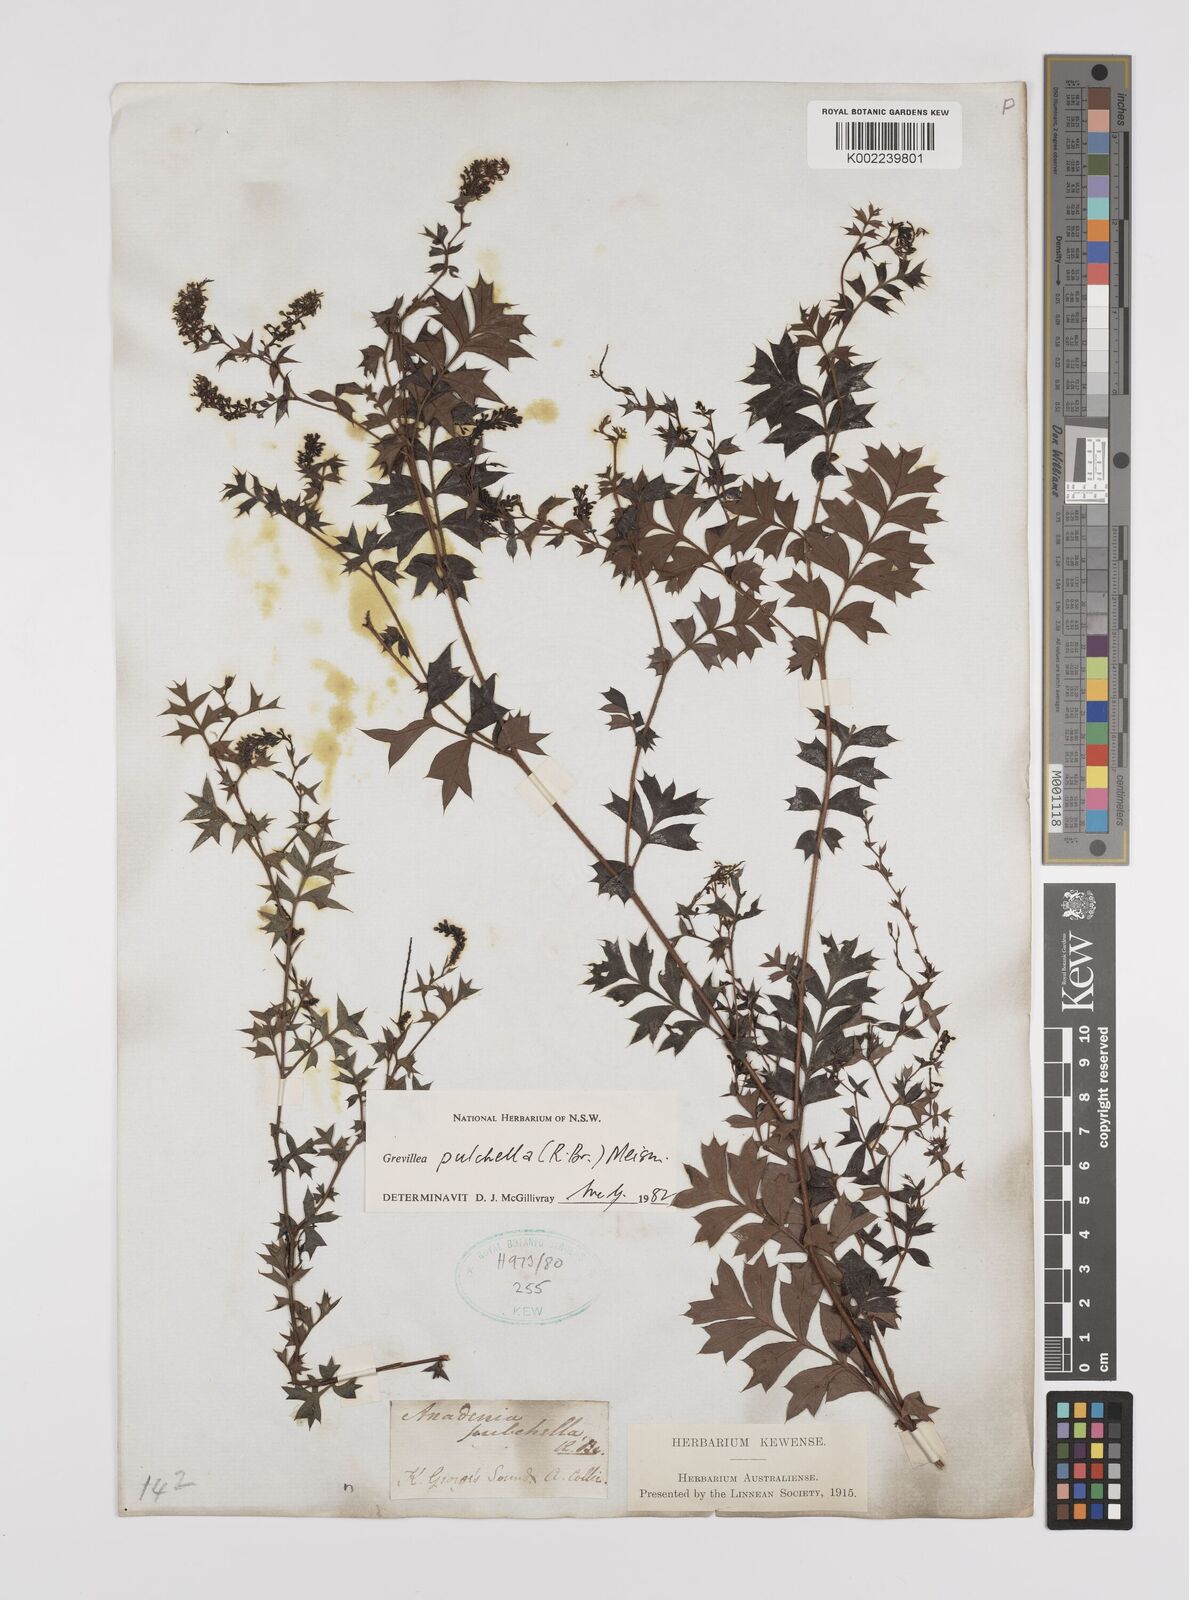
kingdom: Plantae
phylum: Tracheophyta
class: Magnoliopsida
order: Proteales
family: Proteaceae
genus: Grevillea
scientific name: Grevillea pulchella
